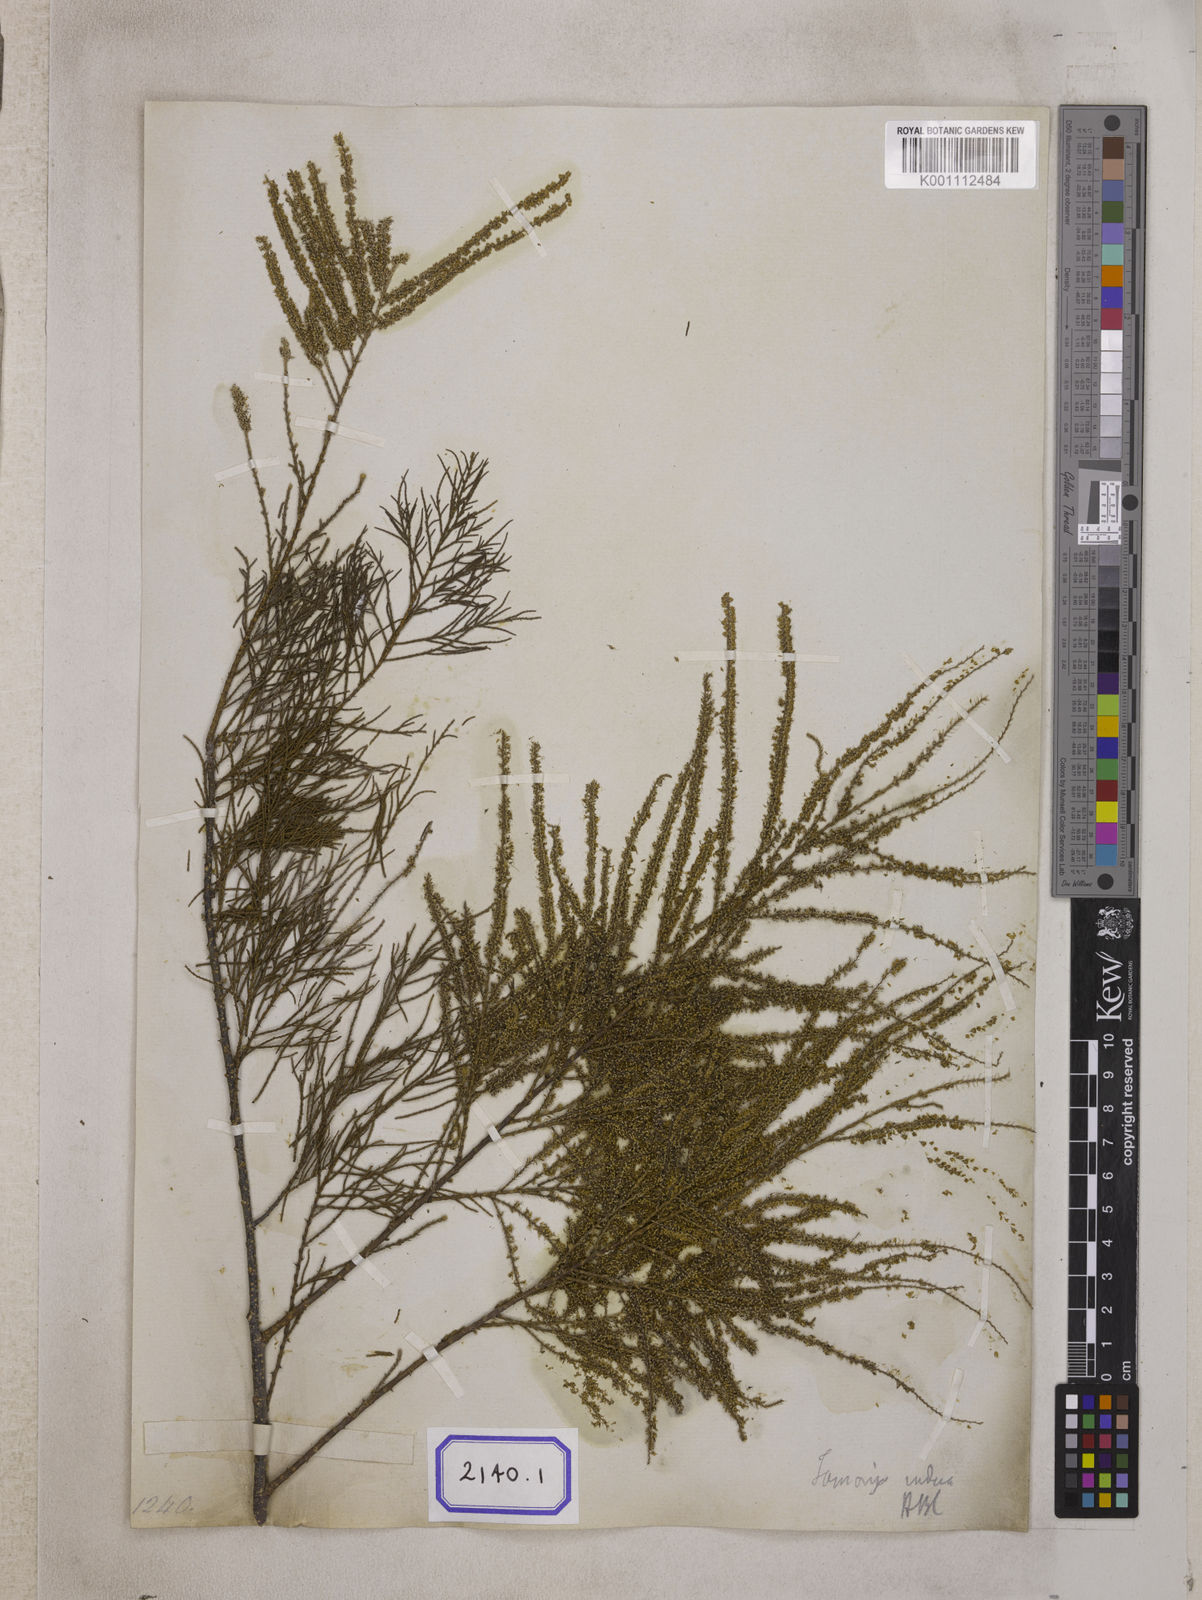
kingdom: Plantae
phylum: Tracheophyta
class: Magnoliopsida
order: Caryophyllales
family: Tamaricaceae
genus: Tamarix
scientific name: Tamarix indica
